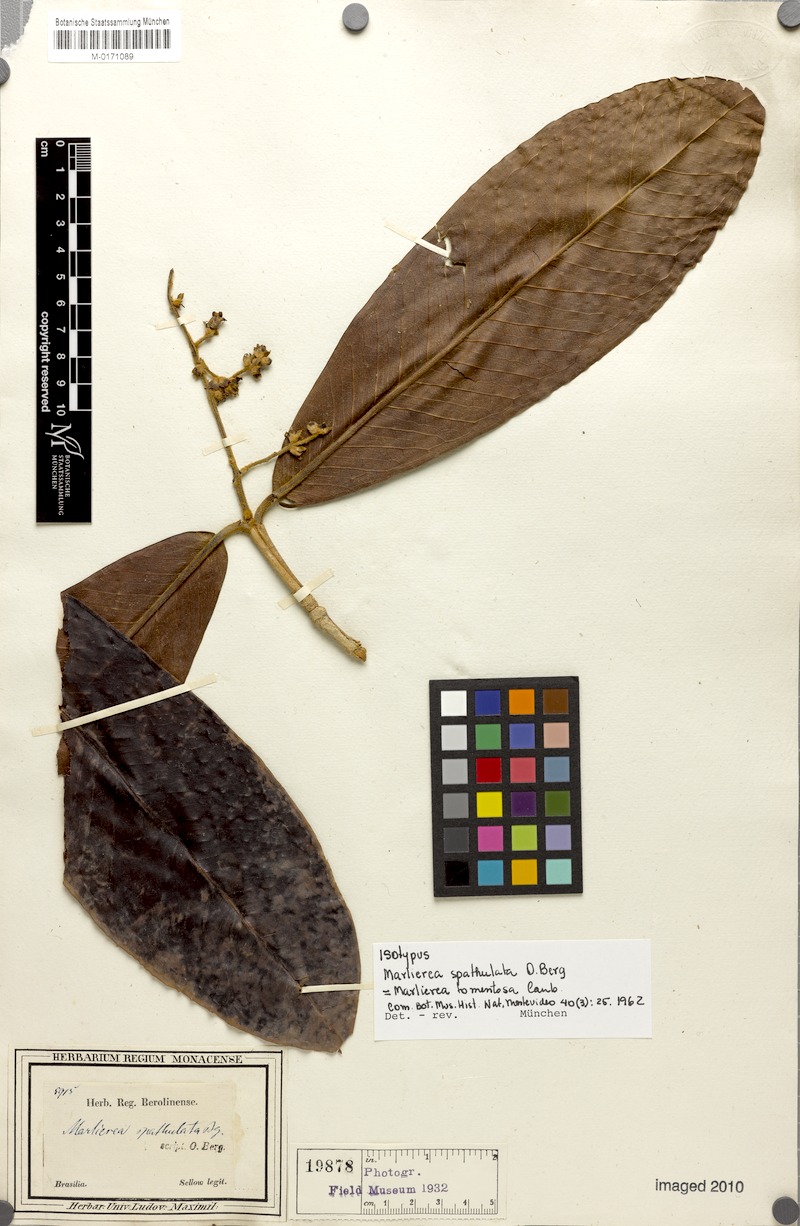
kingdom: Plantae
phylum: Tracheophyta
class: Magnoliopsida
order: Myrtales
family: Myrtaceae
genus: Myrcia
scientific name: Myrcia neotomentosa
